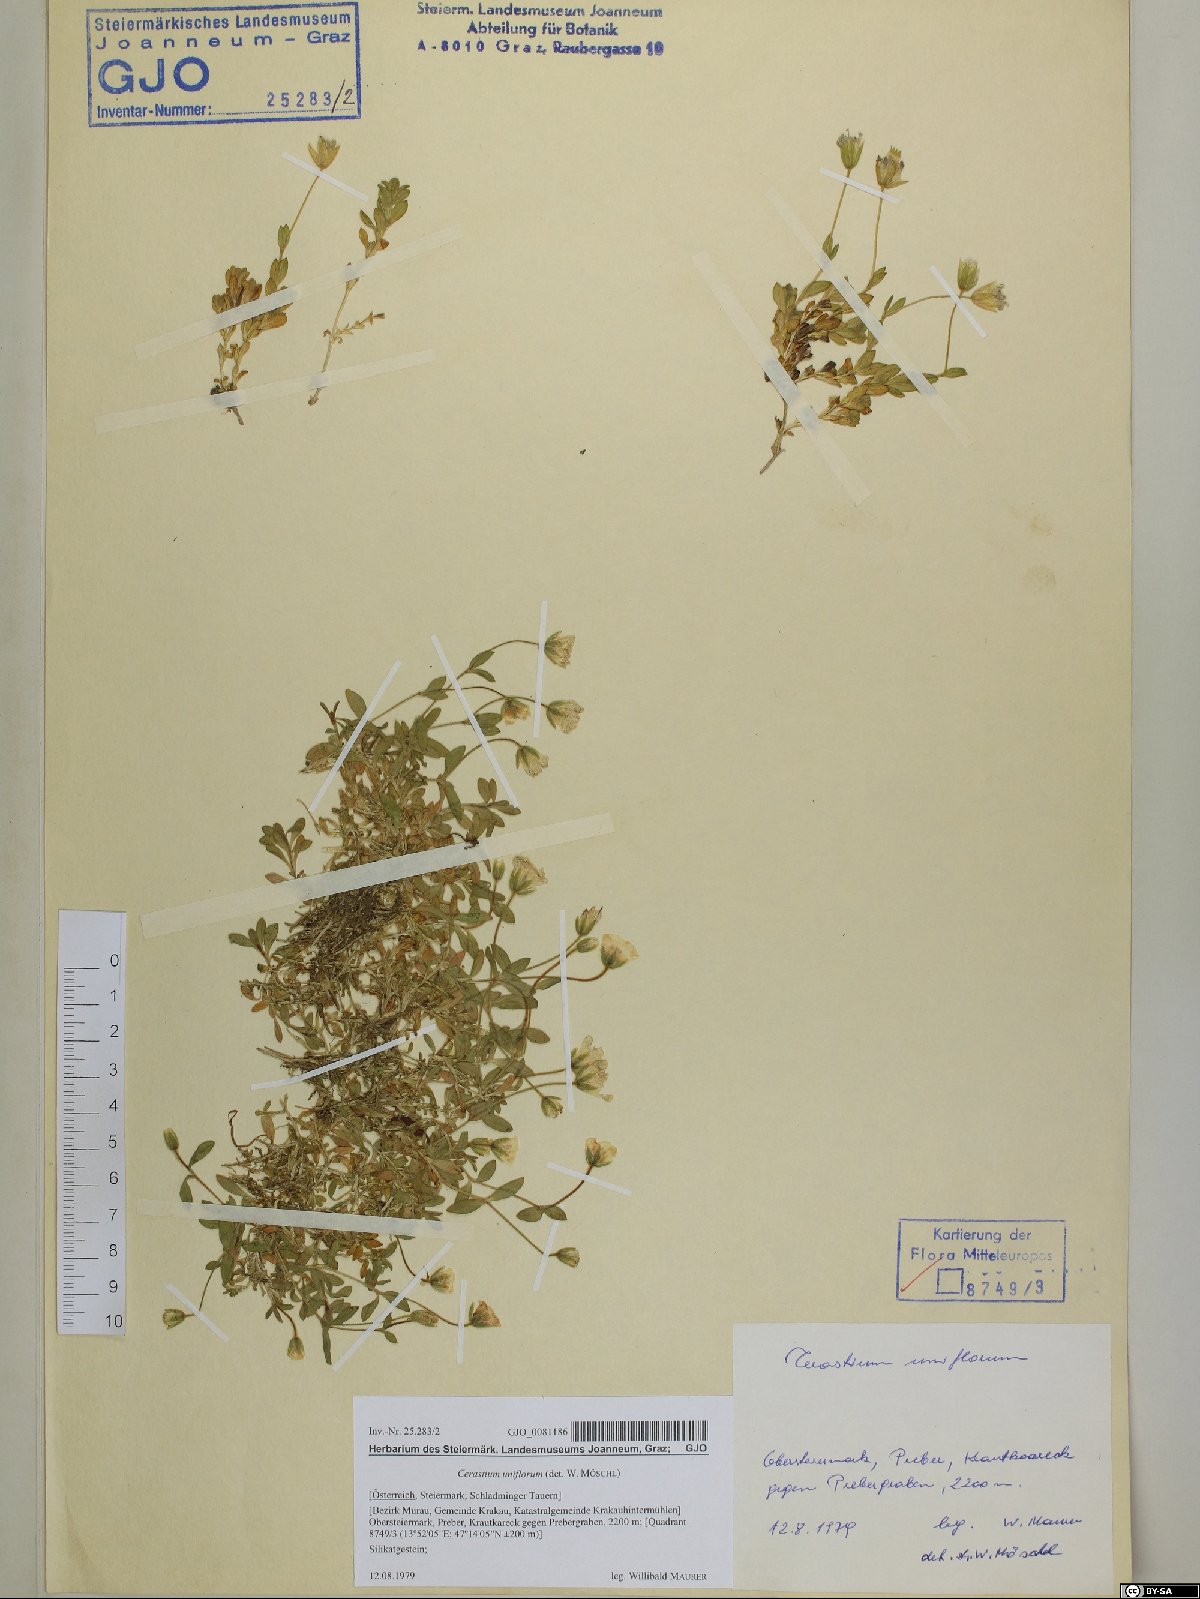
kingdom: Plantae
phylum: Tracheophyta
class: Magnoliopsida
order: Caryophyllales
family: Caryophyllaceae
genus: Cerastium
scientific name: Cerastium uniflorum
